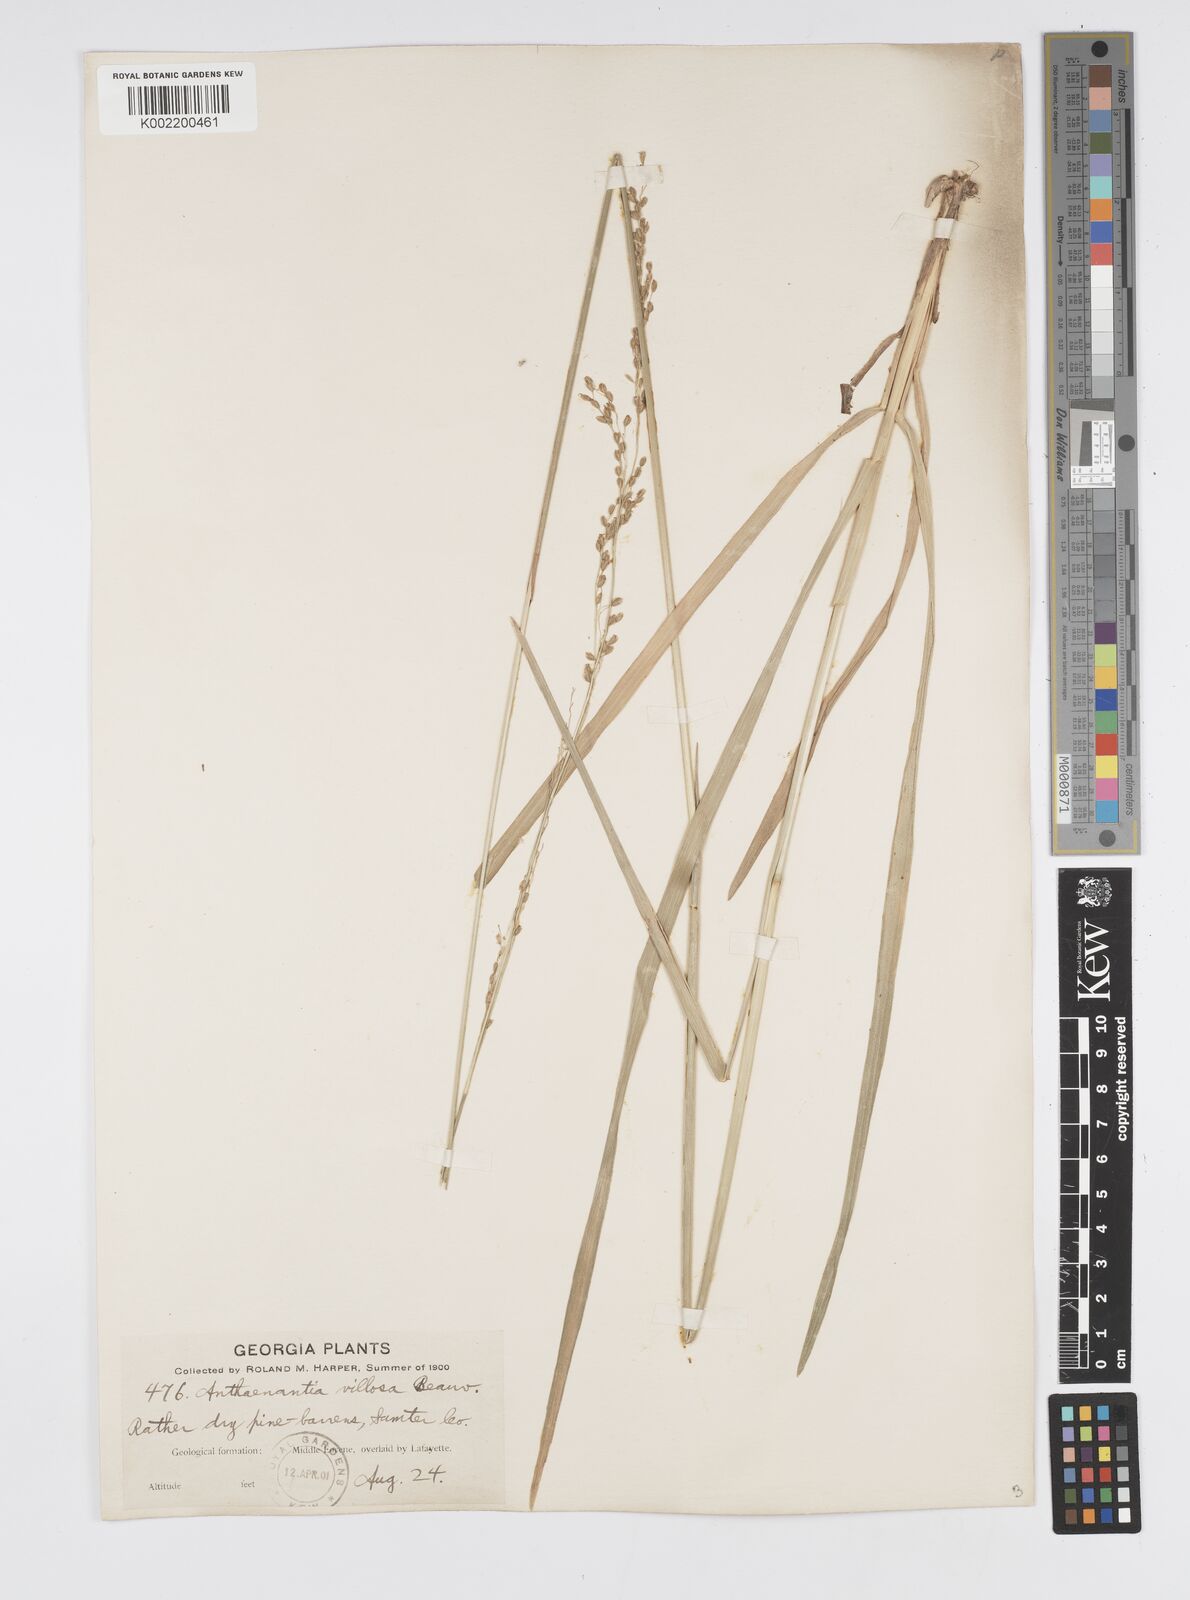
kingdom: Plantae
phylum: Tracheophyta
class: Liliopsida
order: Poales
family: Poaceae
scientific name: Poaceae
